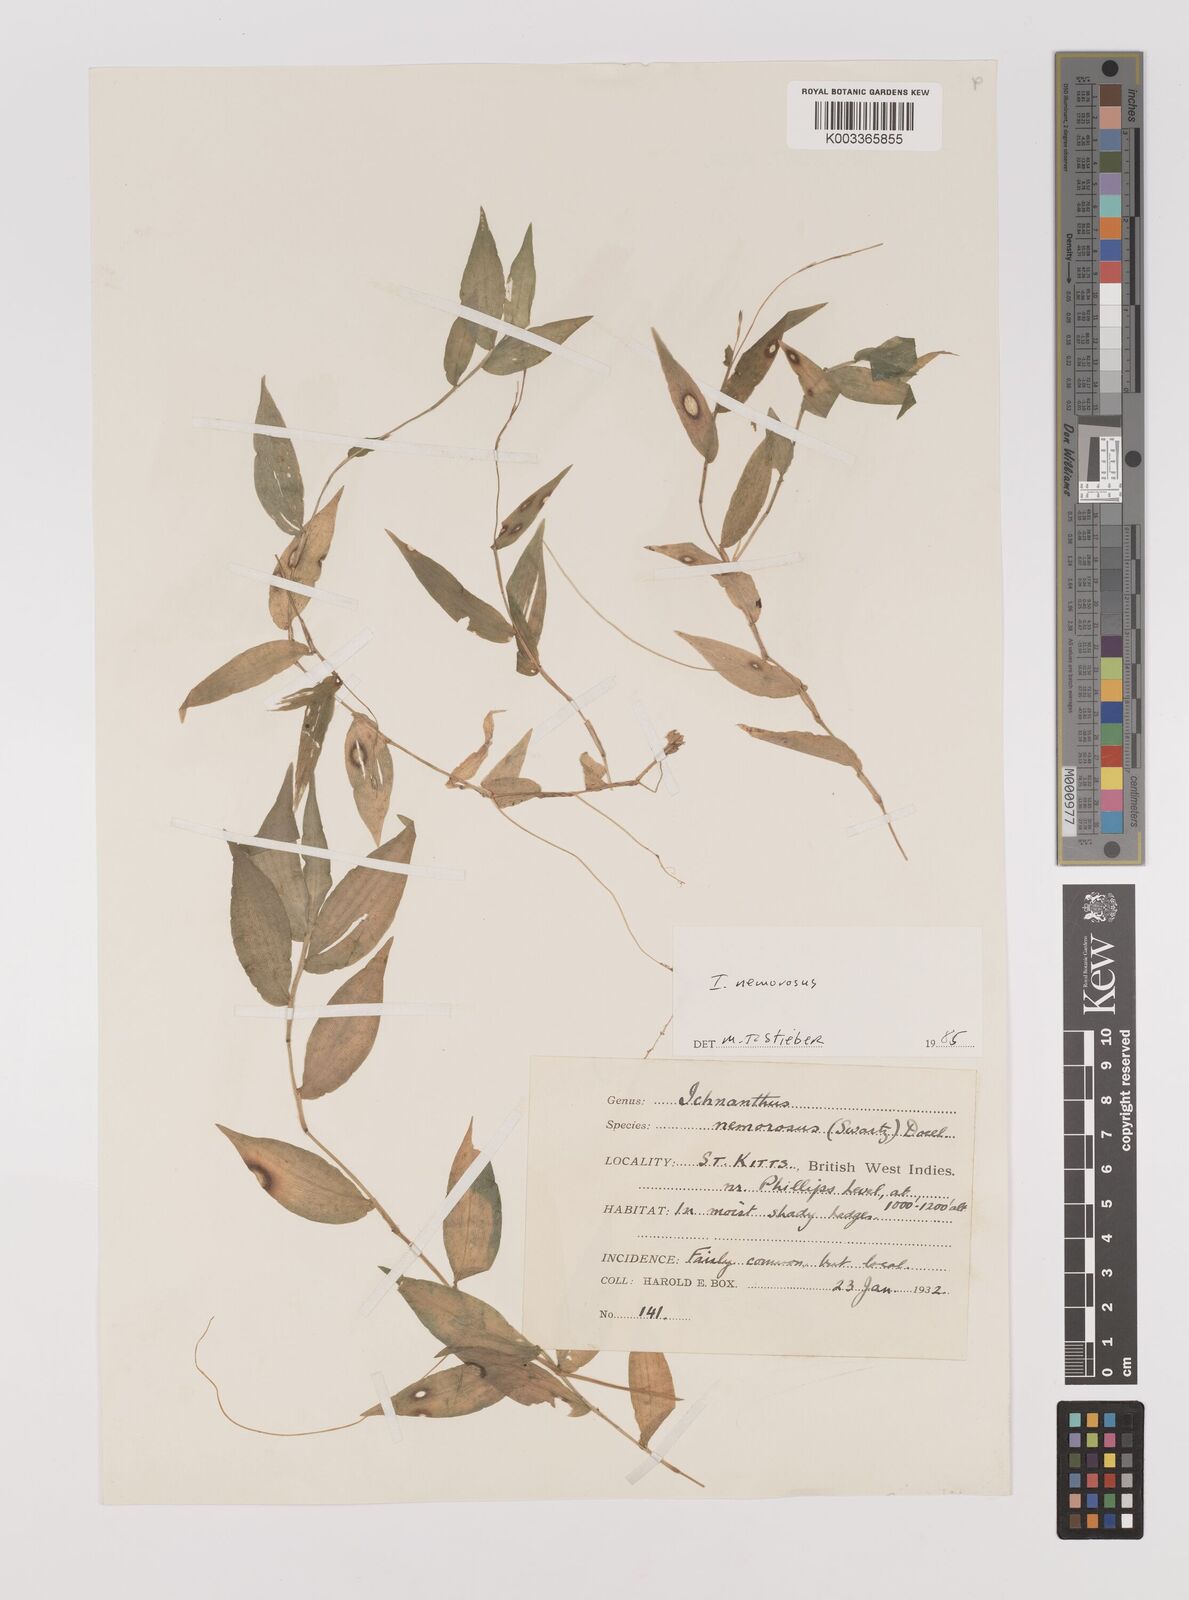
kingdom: Plantae
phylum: Tracheophyta
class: Liliopsida
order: Poales
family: Poaceae
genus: Ichnanthus
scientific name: Ichnanthus nemorosus
